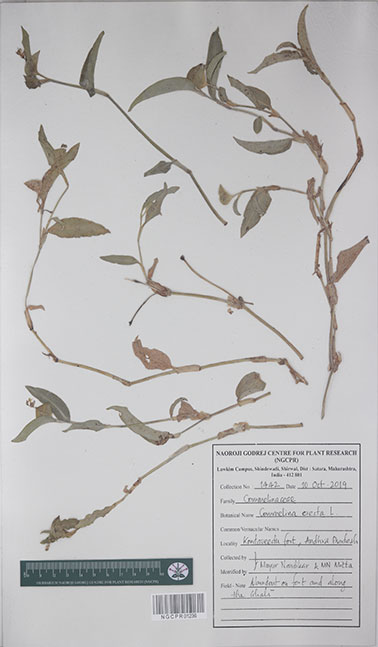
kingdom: Plantae
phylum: Tracheophyta
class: Liliopsida
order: Commelinales
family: Commelinaceae
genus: Commelina
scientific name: Commelina erecta
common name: Blousel blommetjie
